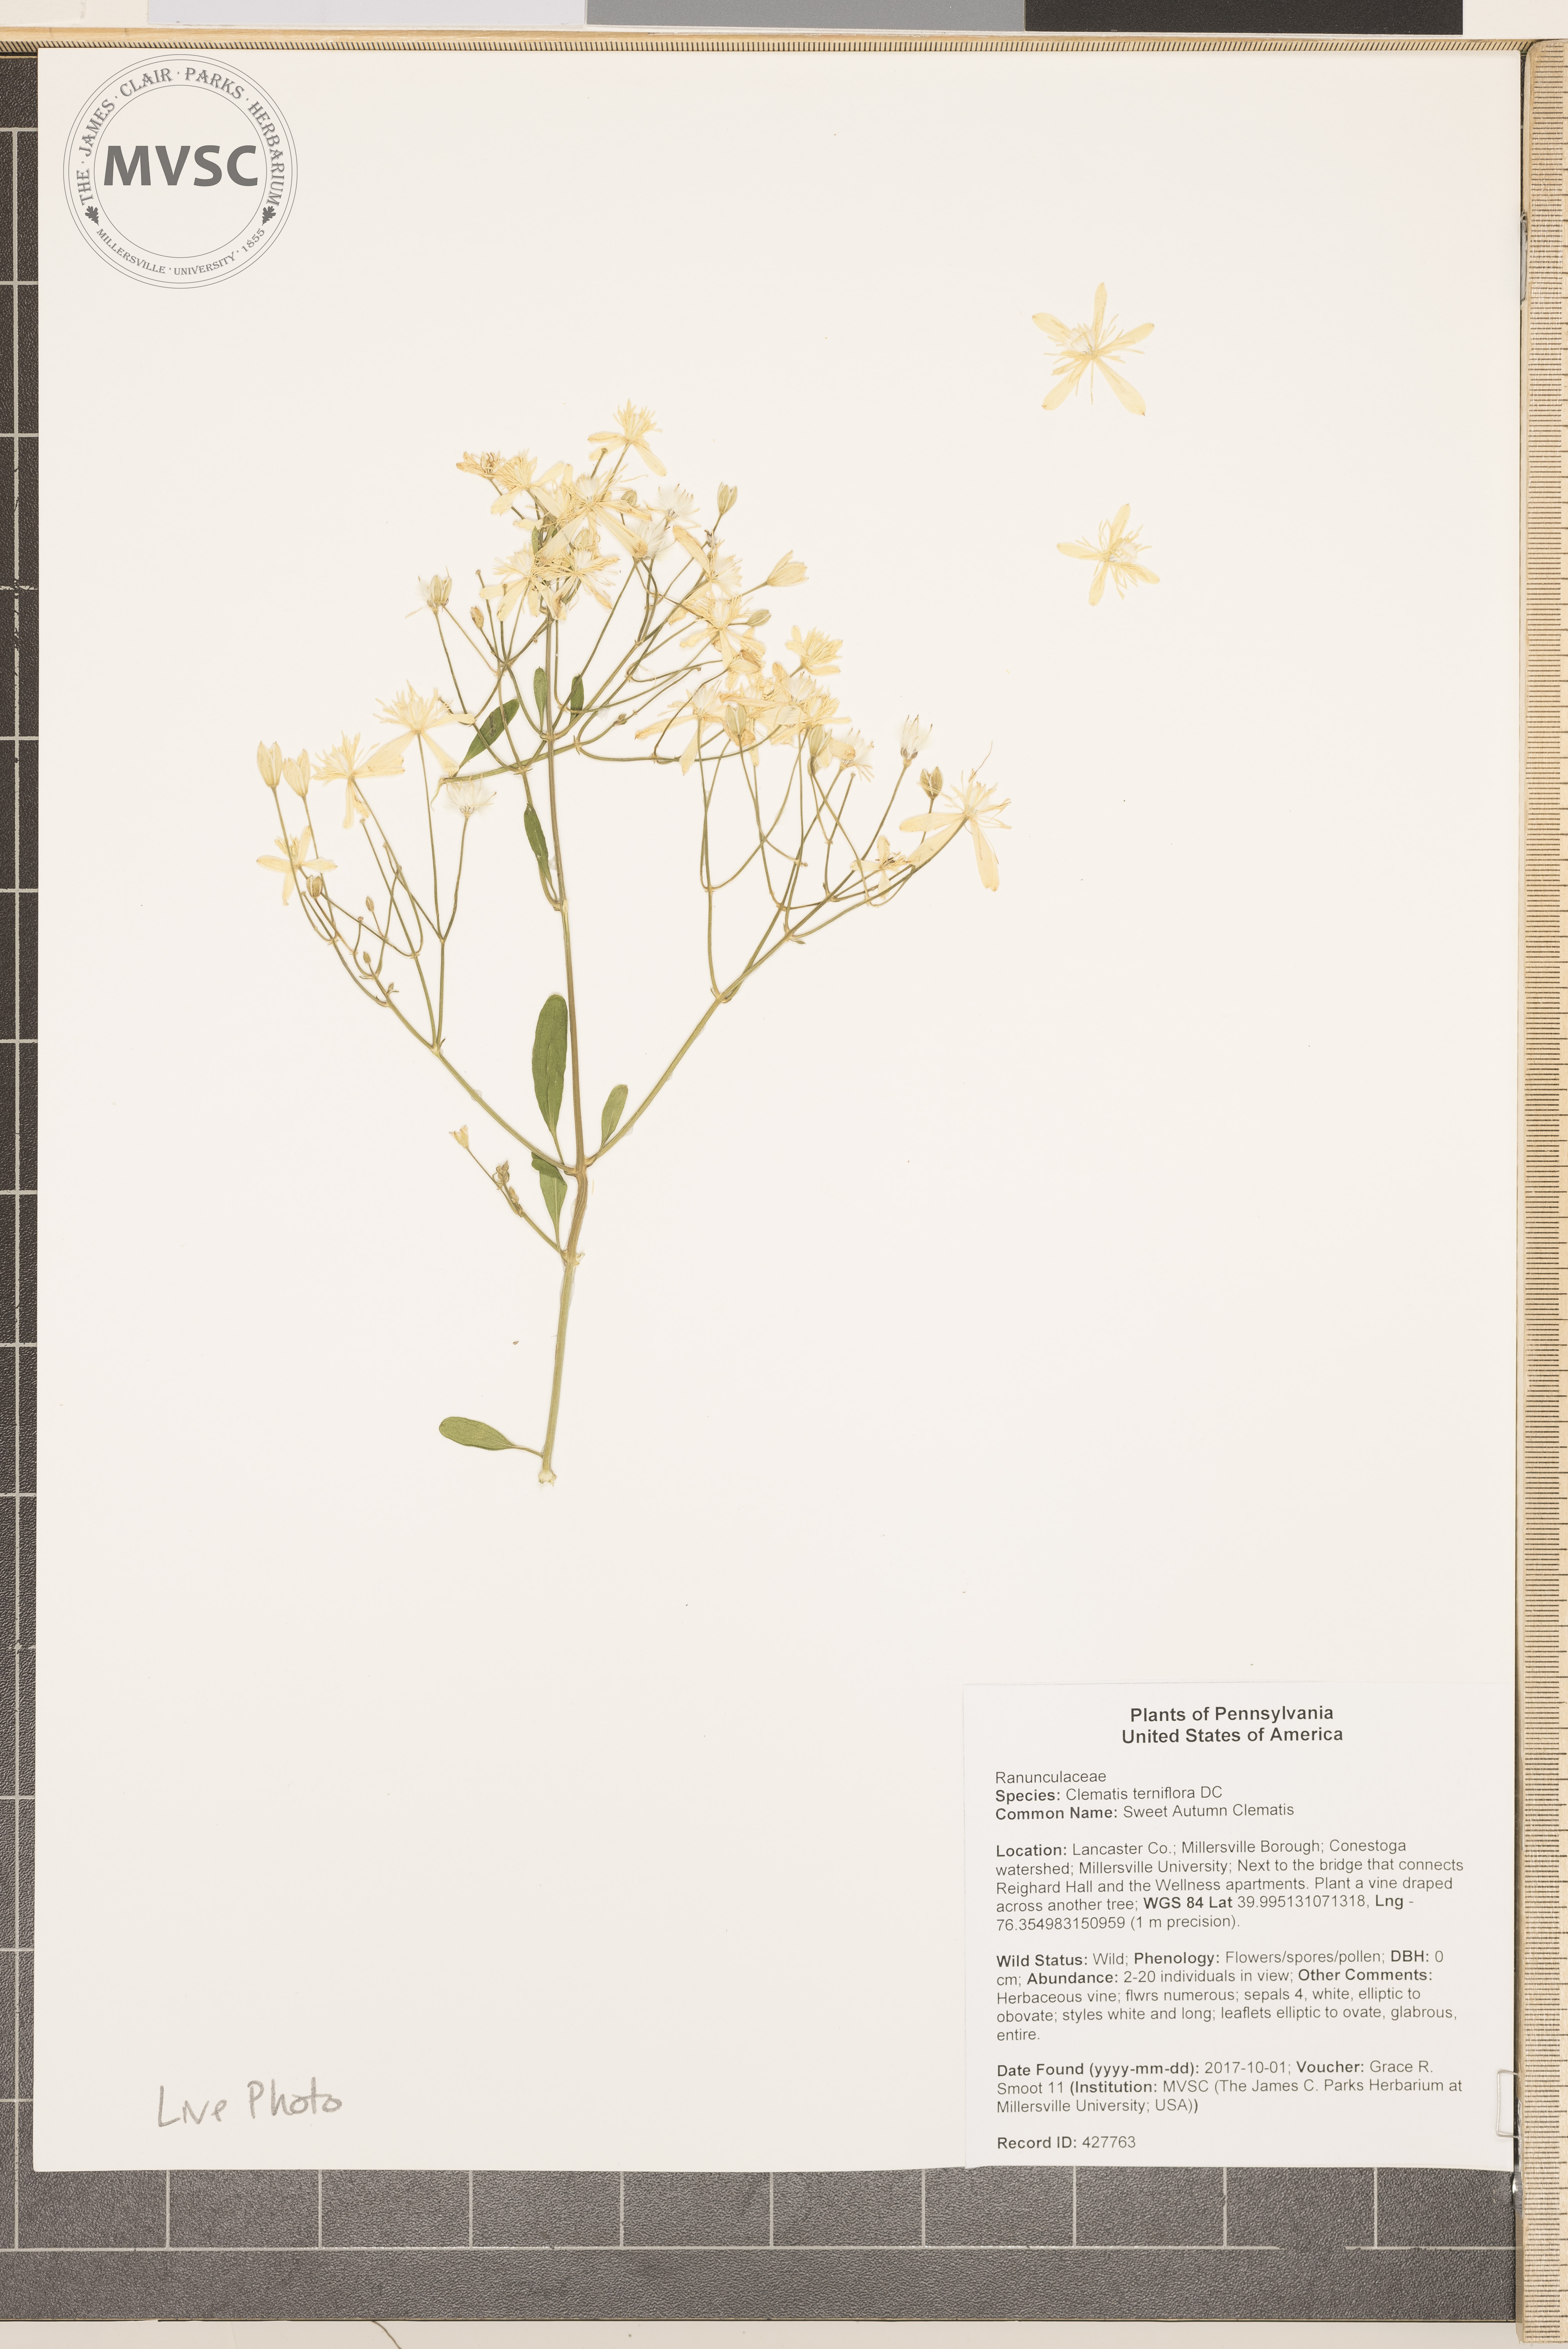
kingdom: Plantae
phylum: Tracheophyta
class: Magnoliopsida
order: Ranunculales
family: Ranunculaceae
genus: Clematis
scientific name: Clematis terniflora
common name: Sweet Autumn Clematis
